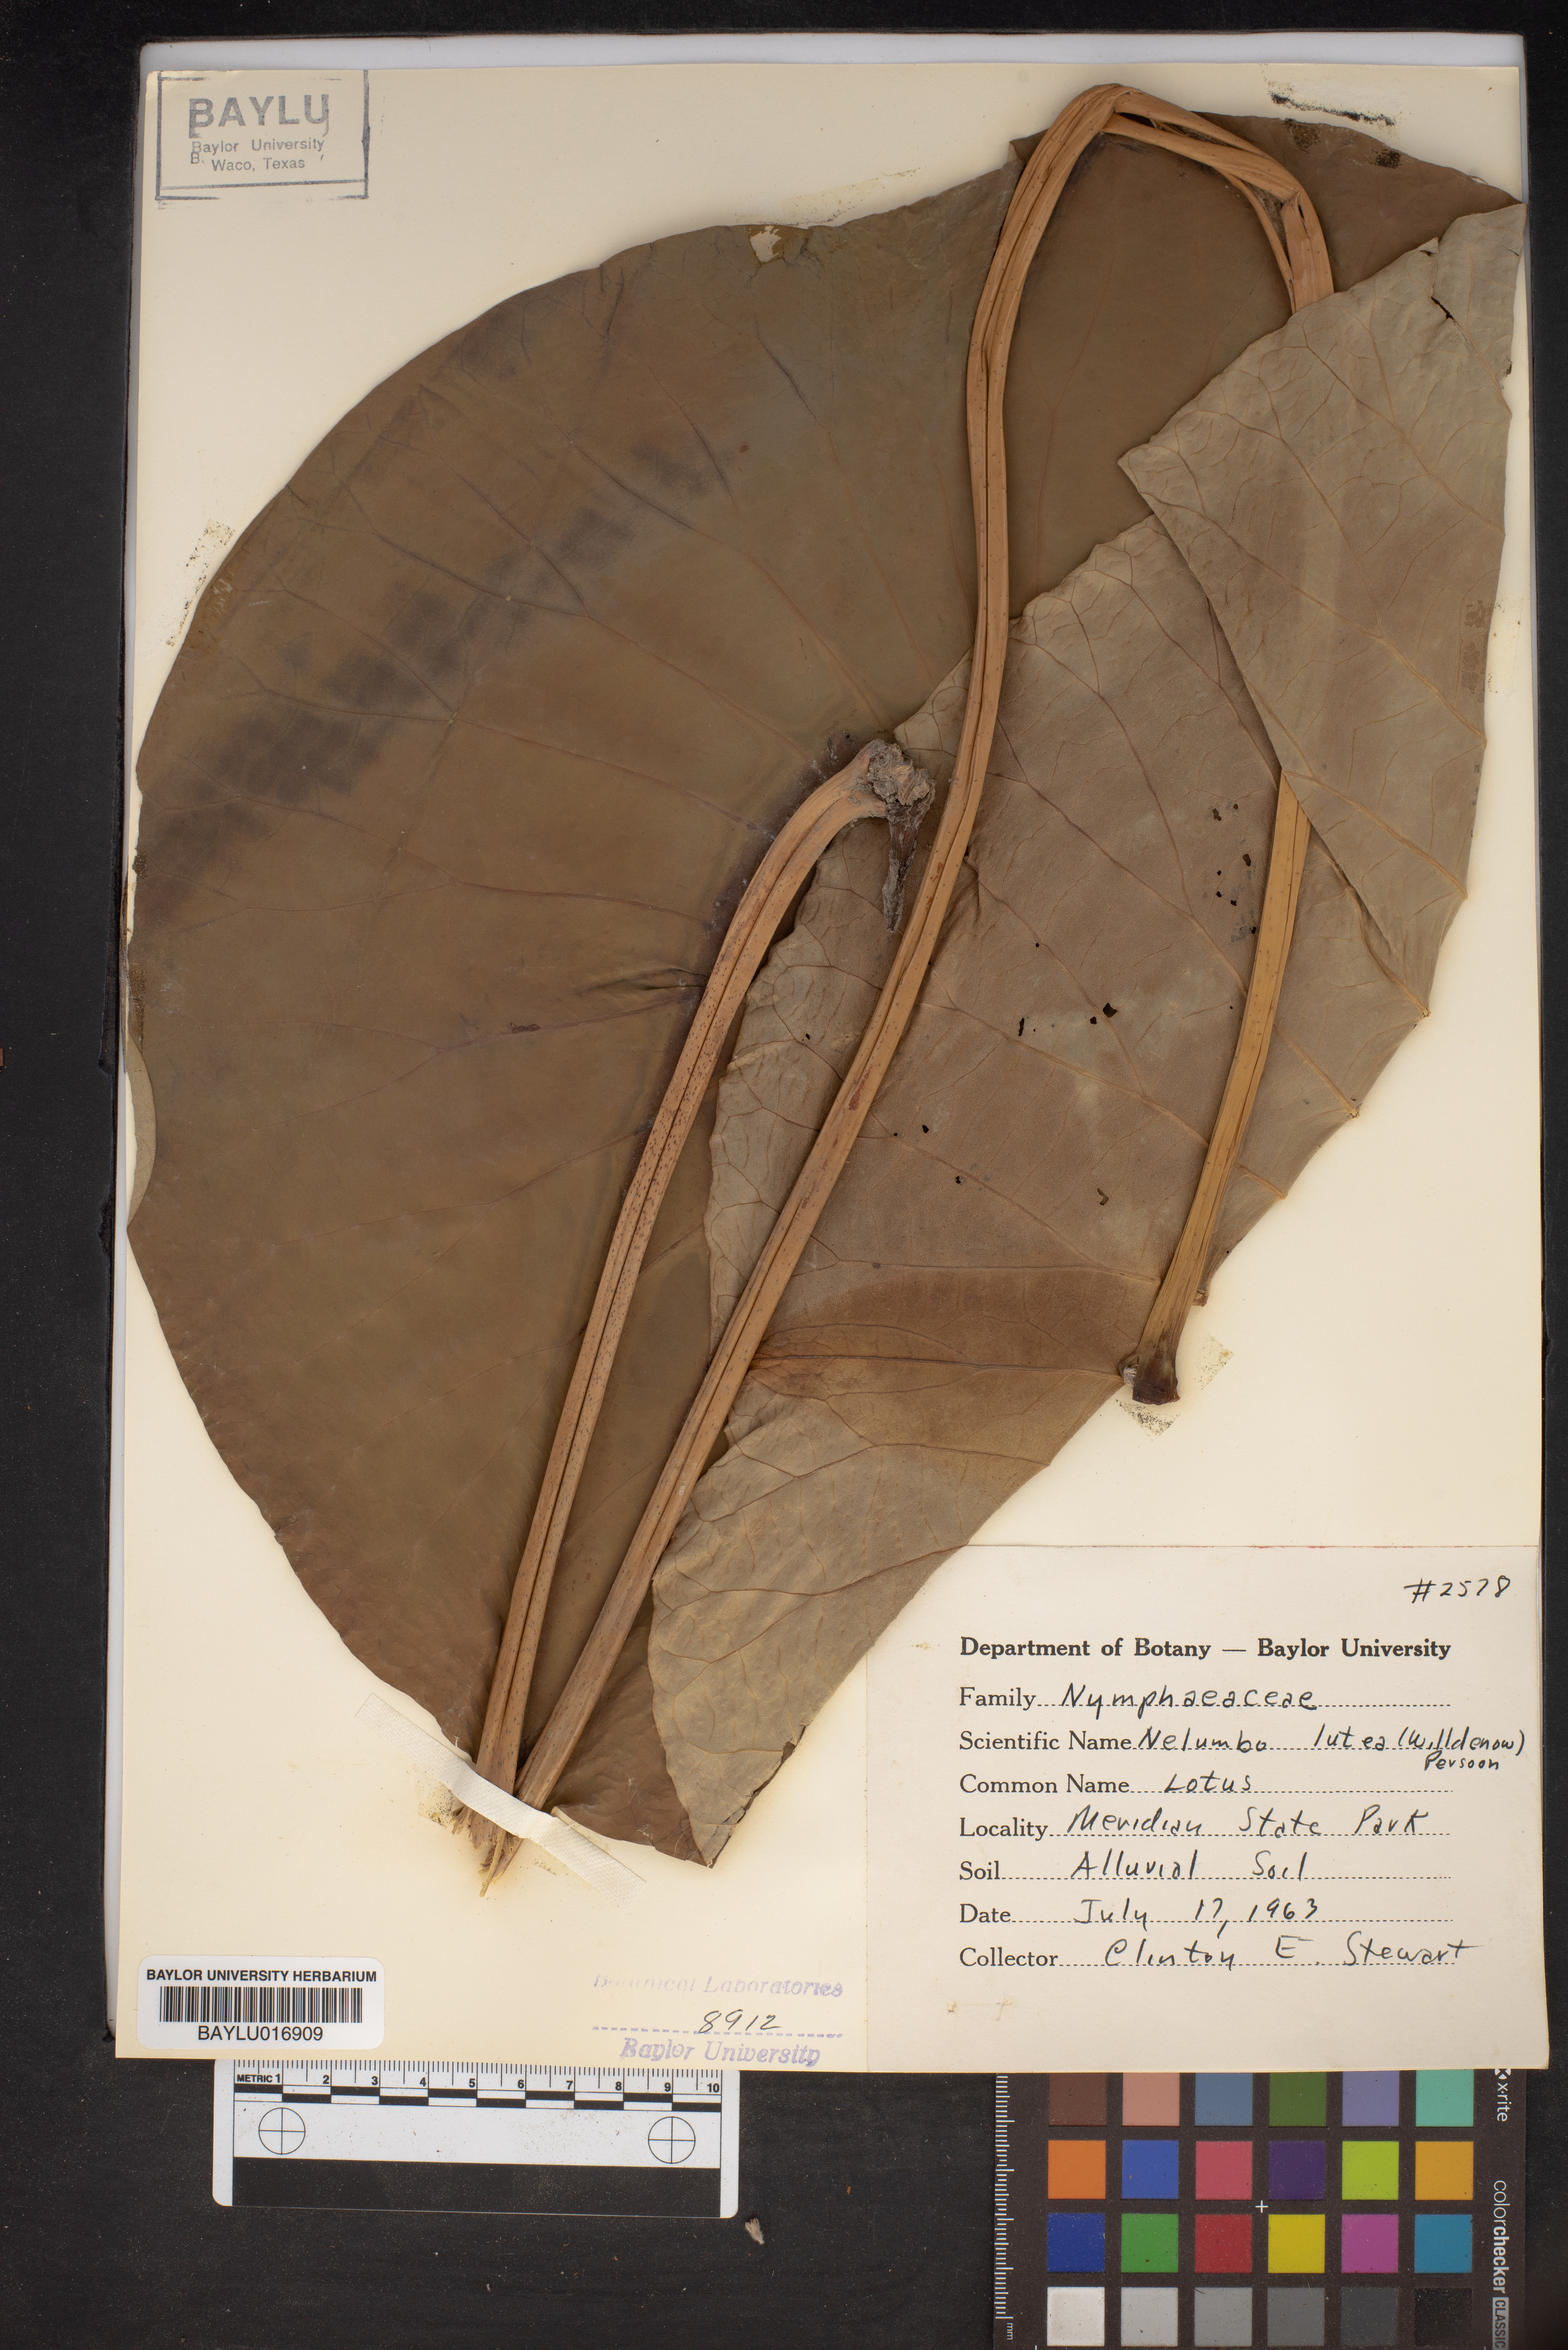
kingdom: Plantae
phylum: Tracheophyta
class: Magnoliopsida
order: Proteales
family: Nelumbonaceae
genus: Nelumbo
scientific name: Nelumbo lutea
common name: American lotus
